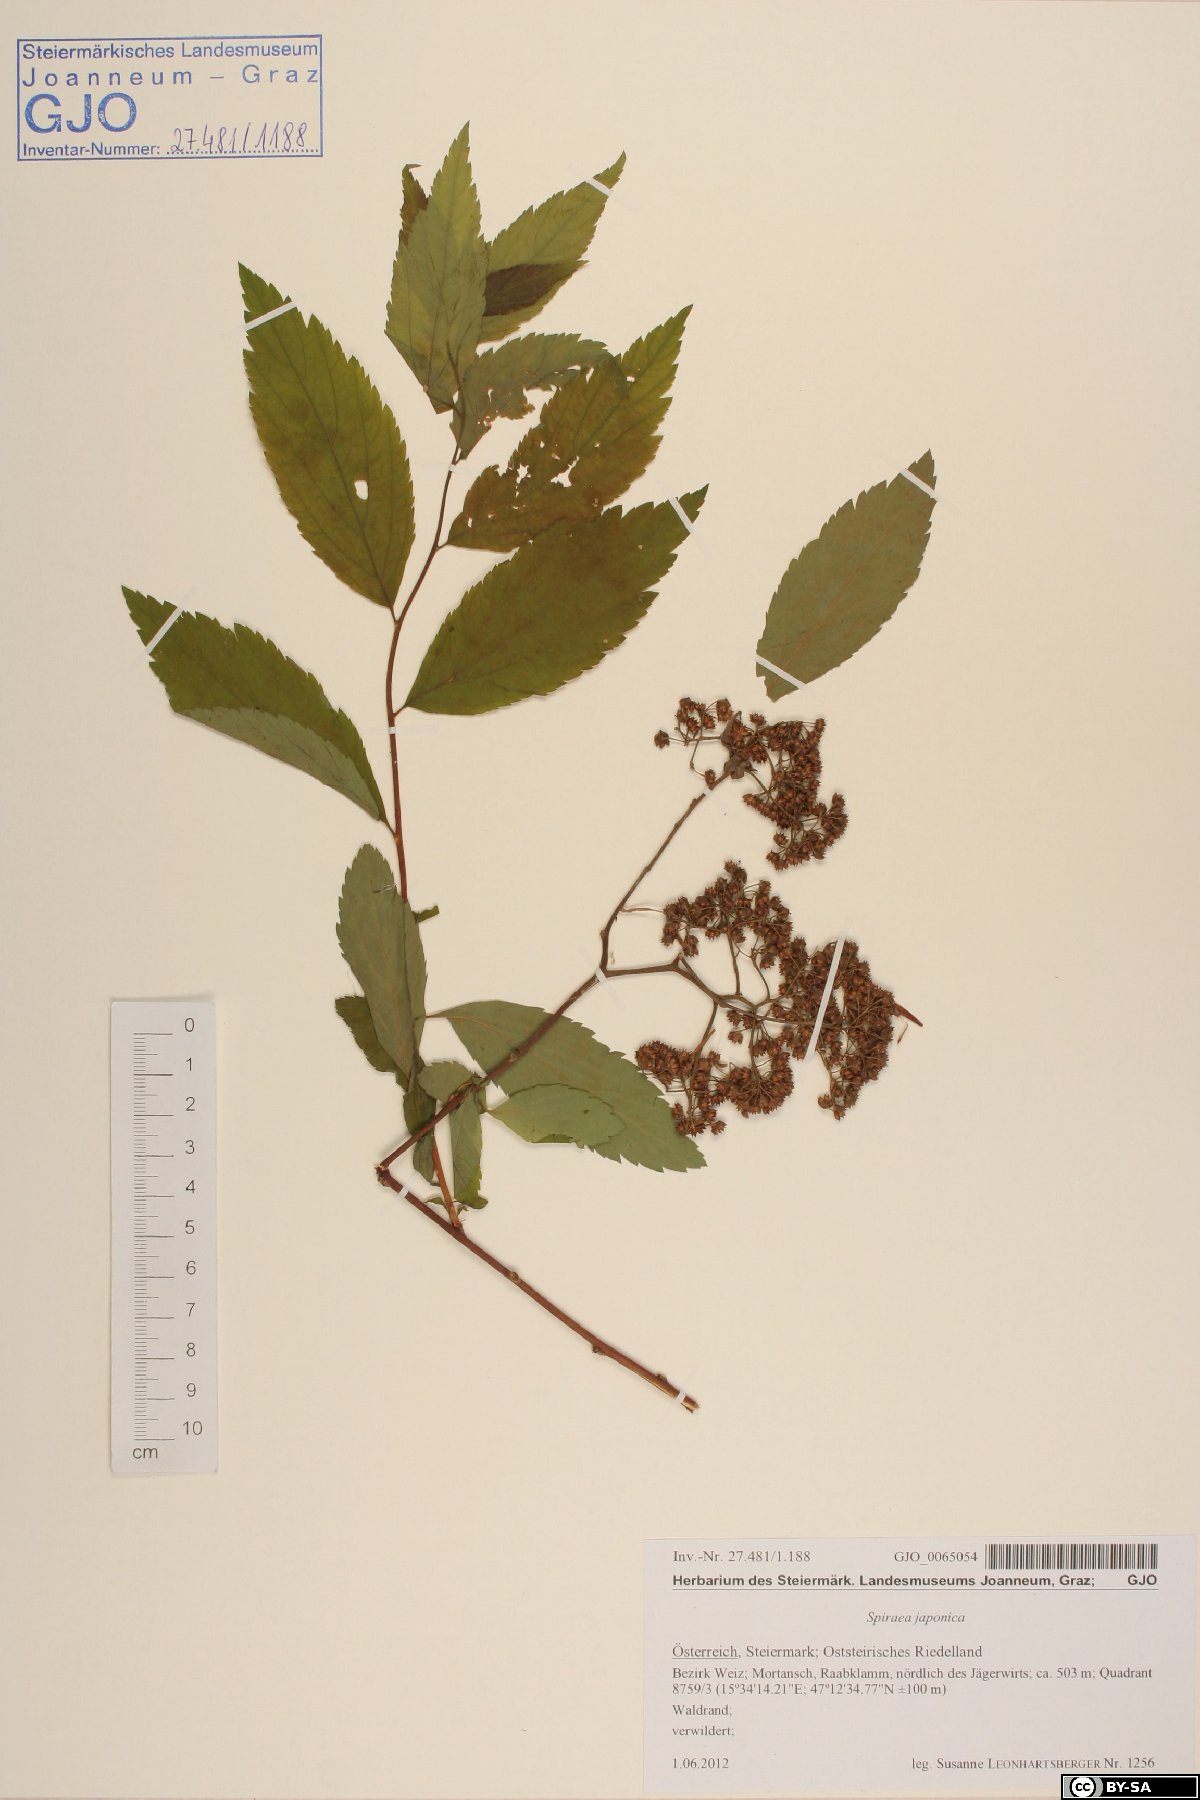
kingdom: Plantae
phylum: Tracheophyta
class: Magnoliopsida
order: Rosales
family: Rosaceae
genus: Spiraea
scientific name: Spiraea japonica
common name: Japanese spiraea
